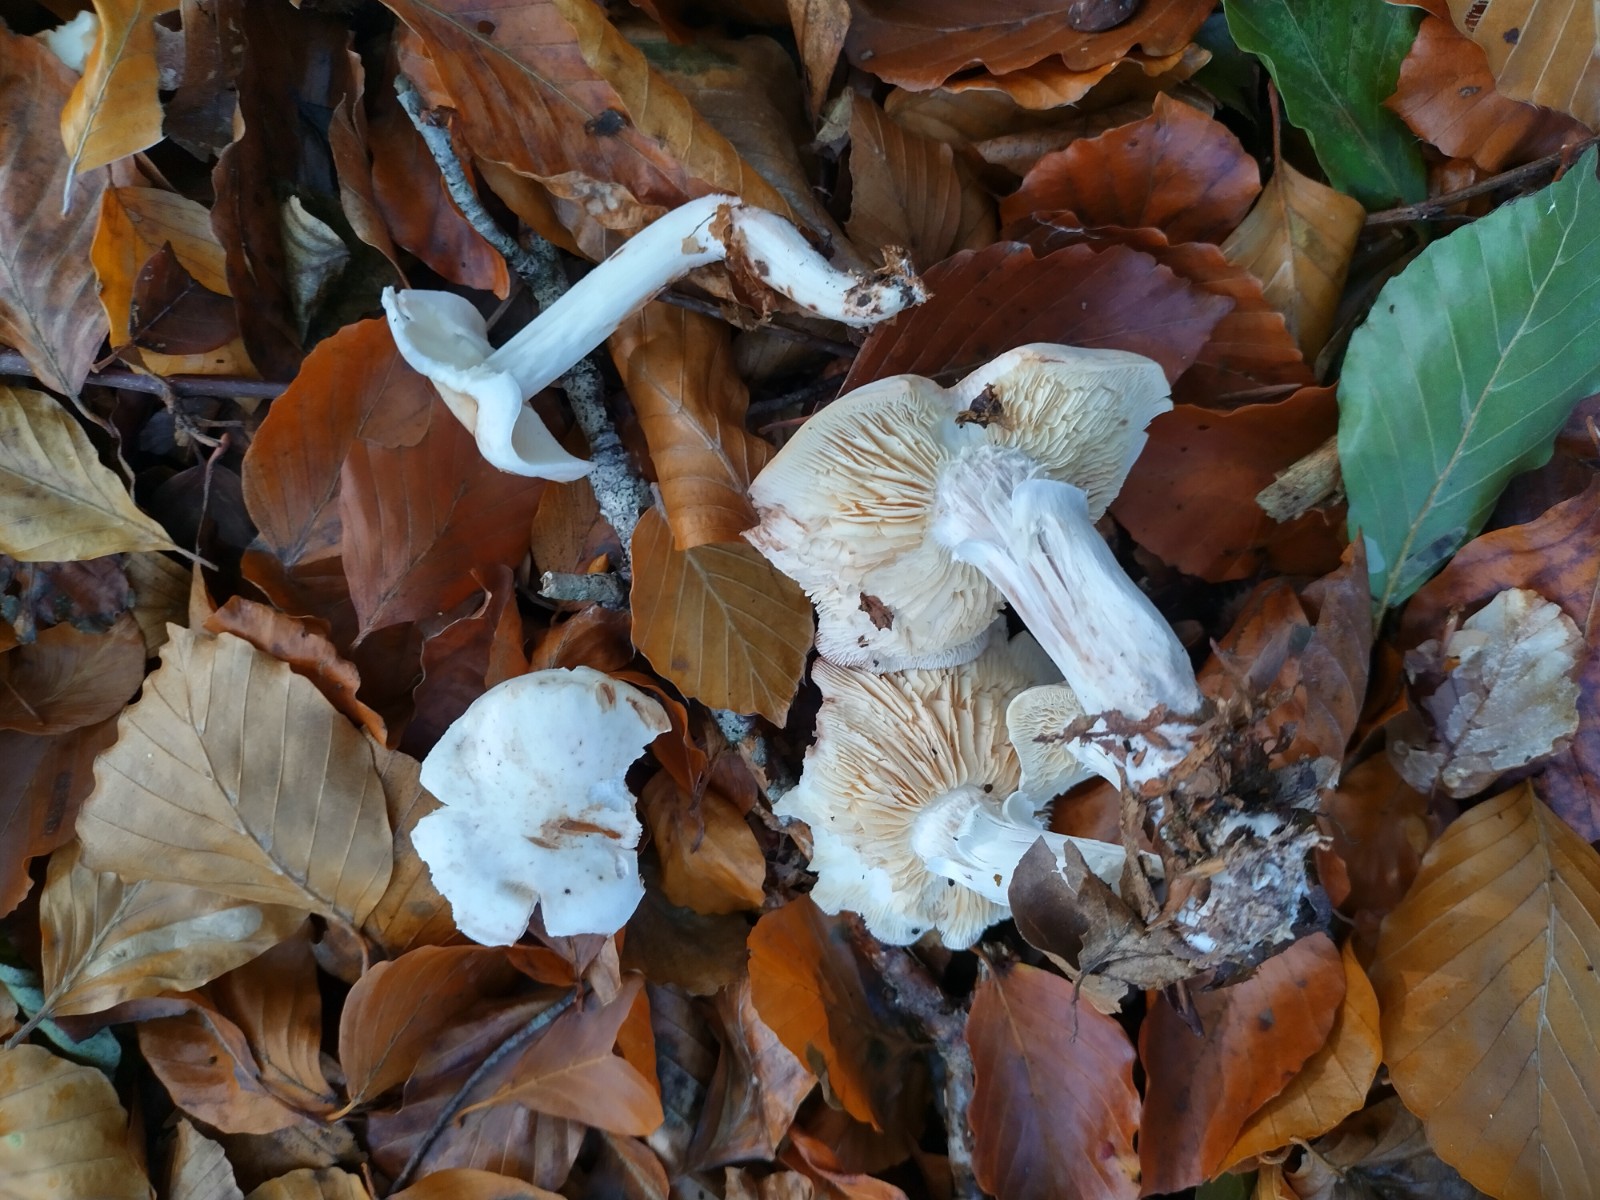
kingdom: Fungi
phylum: Basidiomycota
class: Agaricomycetes
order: Agaricales
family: Omphalotaceae
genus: Rhodocollybia
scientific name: Rhodocollybia maculata
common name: plettet fladhat
